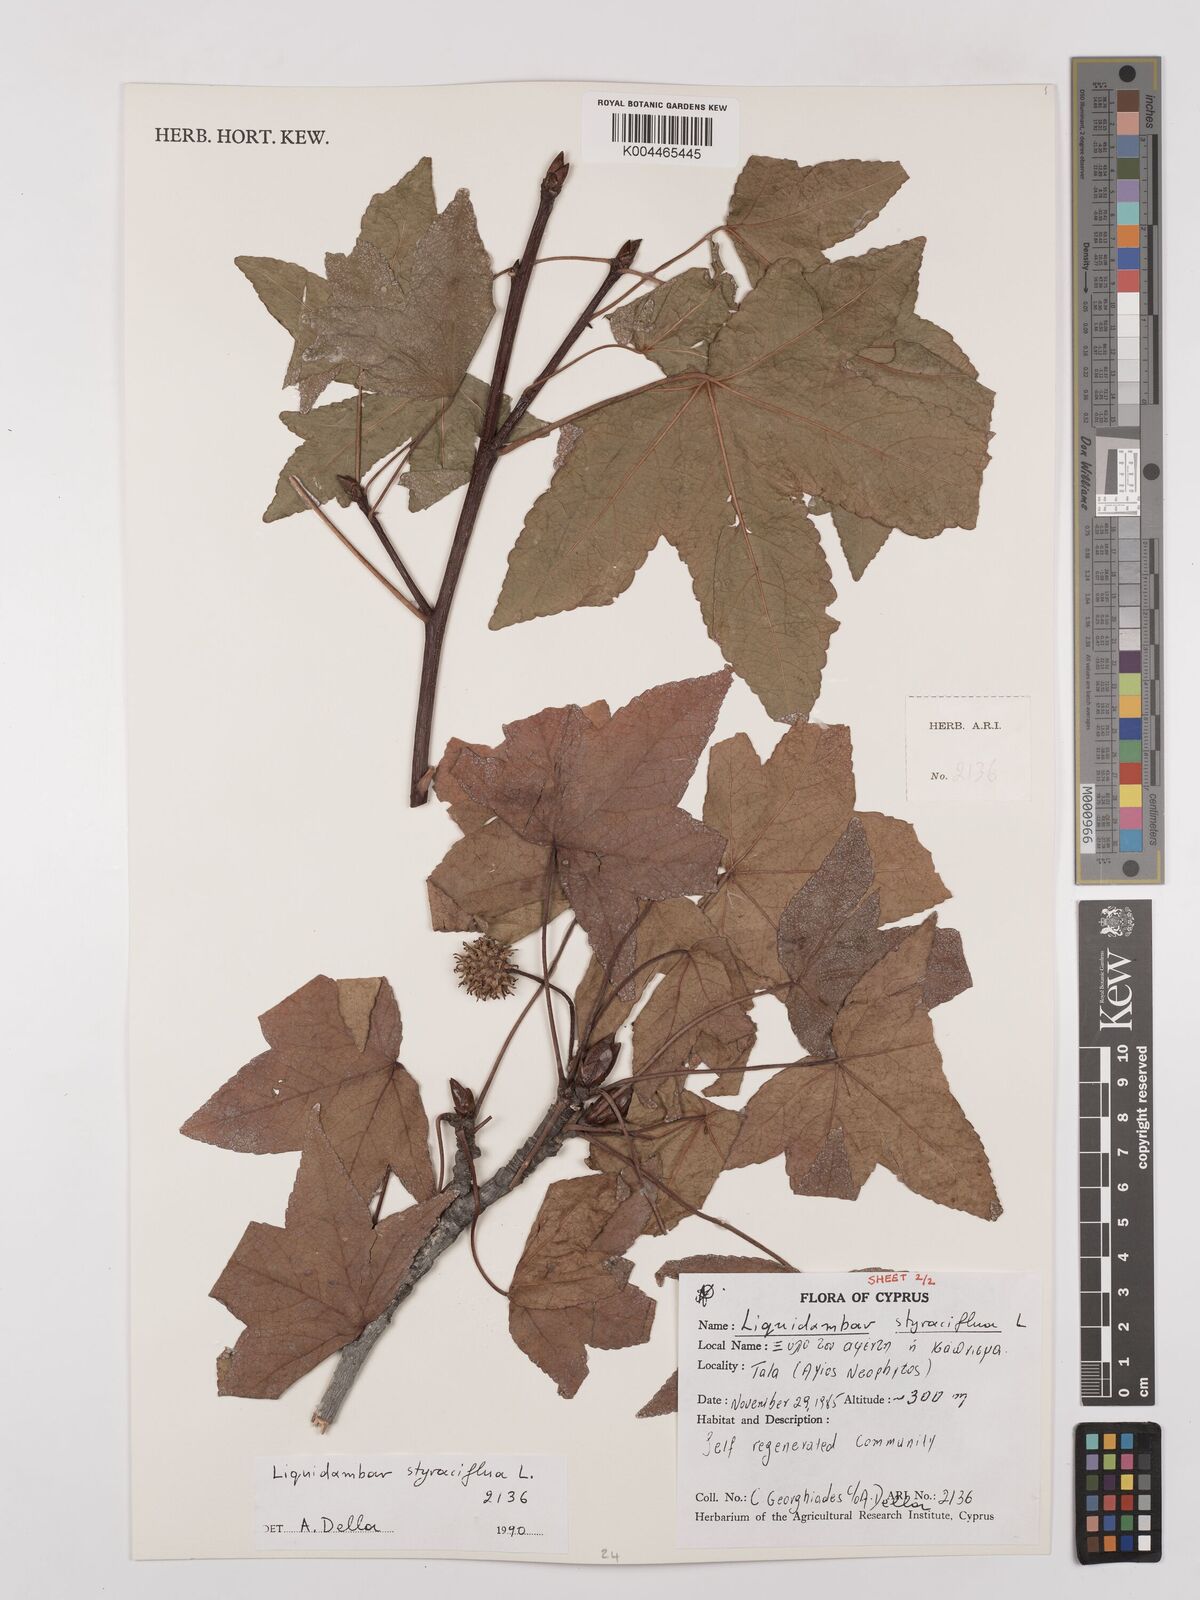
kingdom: Plantae
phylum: Tracheophyta
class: Magnoliopsida
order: Saxifragales
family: Altingiaceae
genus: Liquidambar
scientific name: Liquidambar styraciflua
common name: Sweet gum
